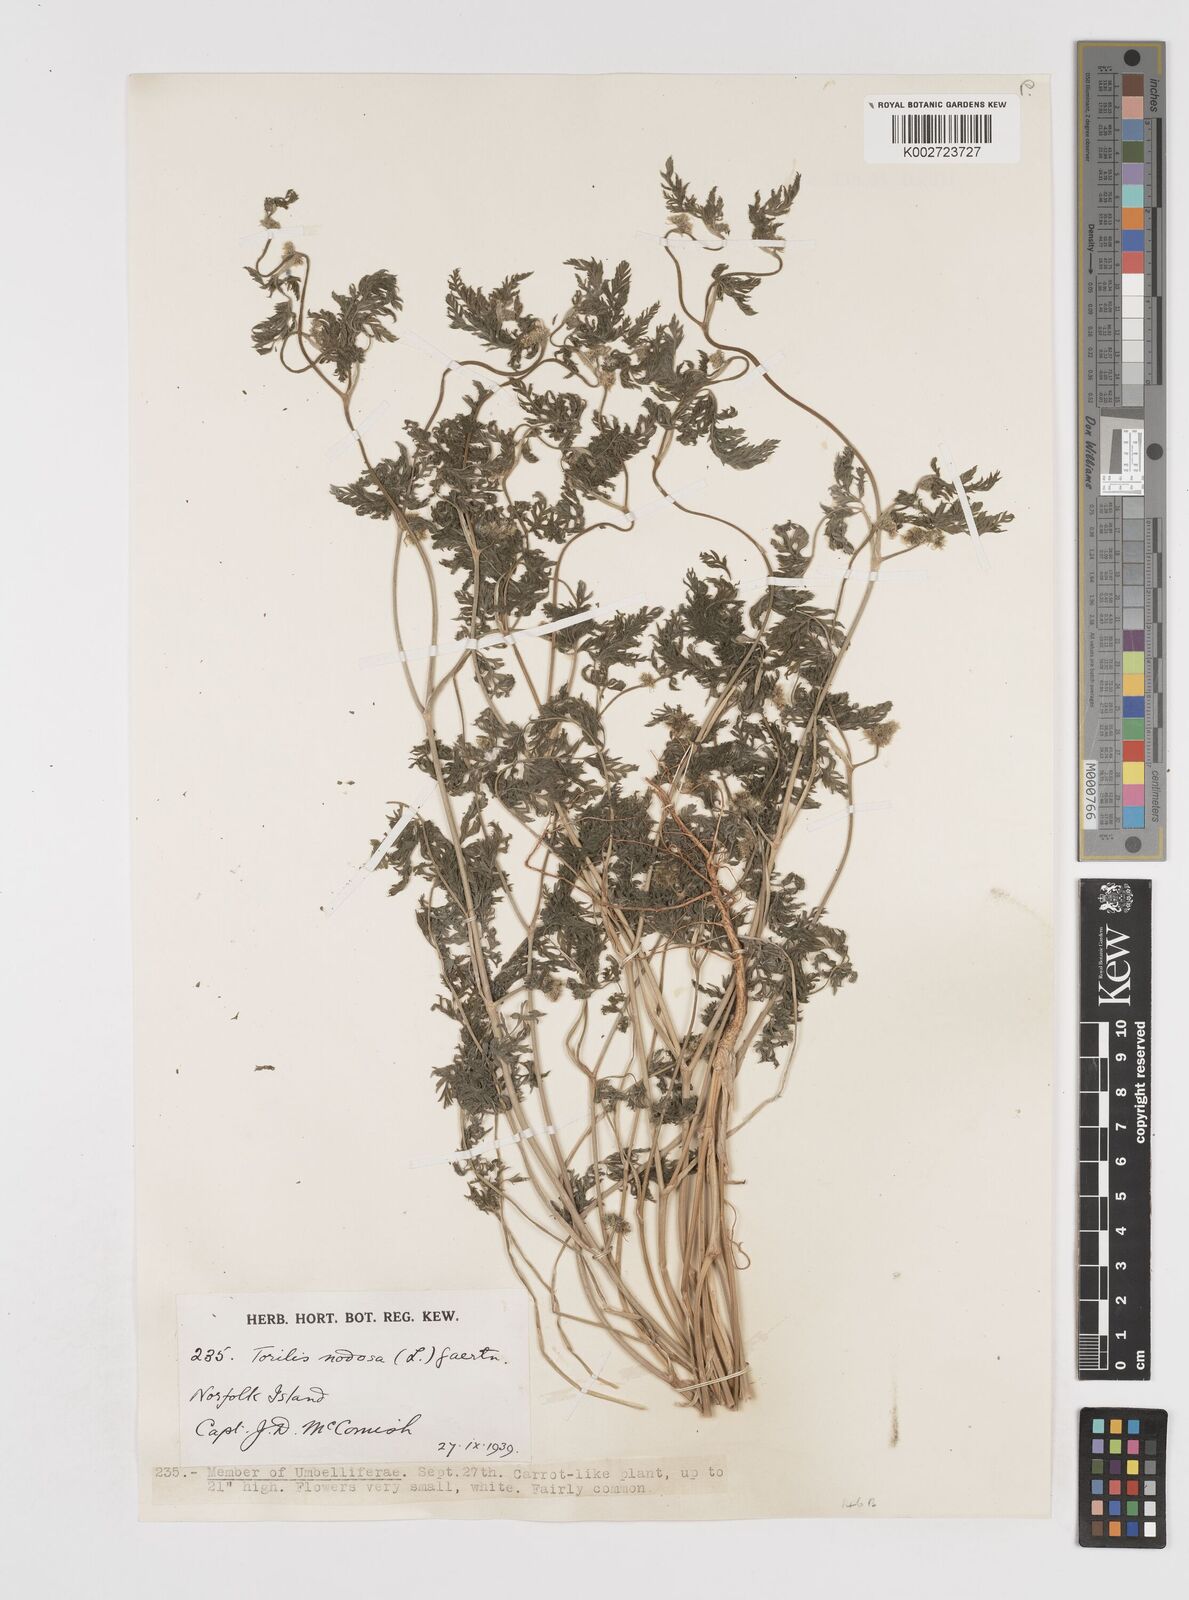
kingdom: Plantae
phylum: Tracheophyta
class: Magnoliopsida
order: Apiales
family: Apiaceae
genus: Torilis
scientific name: Torilis nodosa
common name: Knotted hedge-parsley
